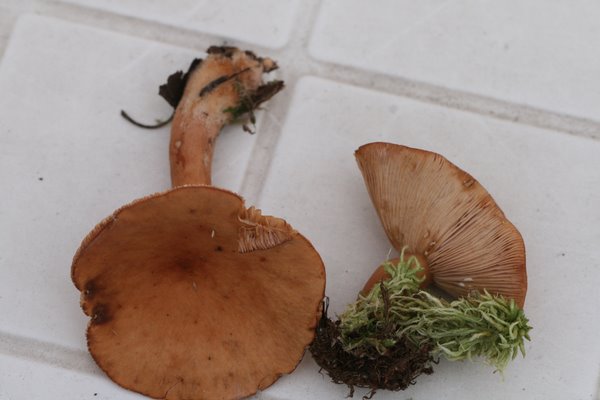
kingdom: Fungi
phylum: Basidiomycota
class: Agaricomycetes
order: Russulales
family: Russulaceae
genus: Lactarius
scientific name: Lactarius subdulcis
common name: sødlig mælkehat
